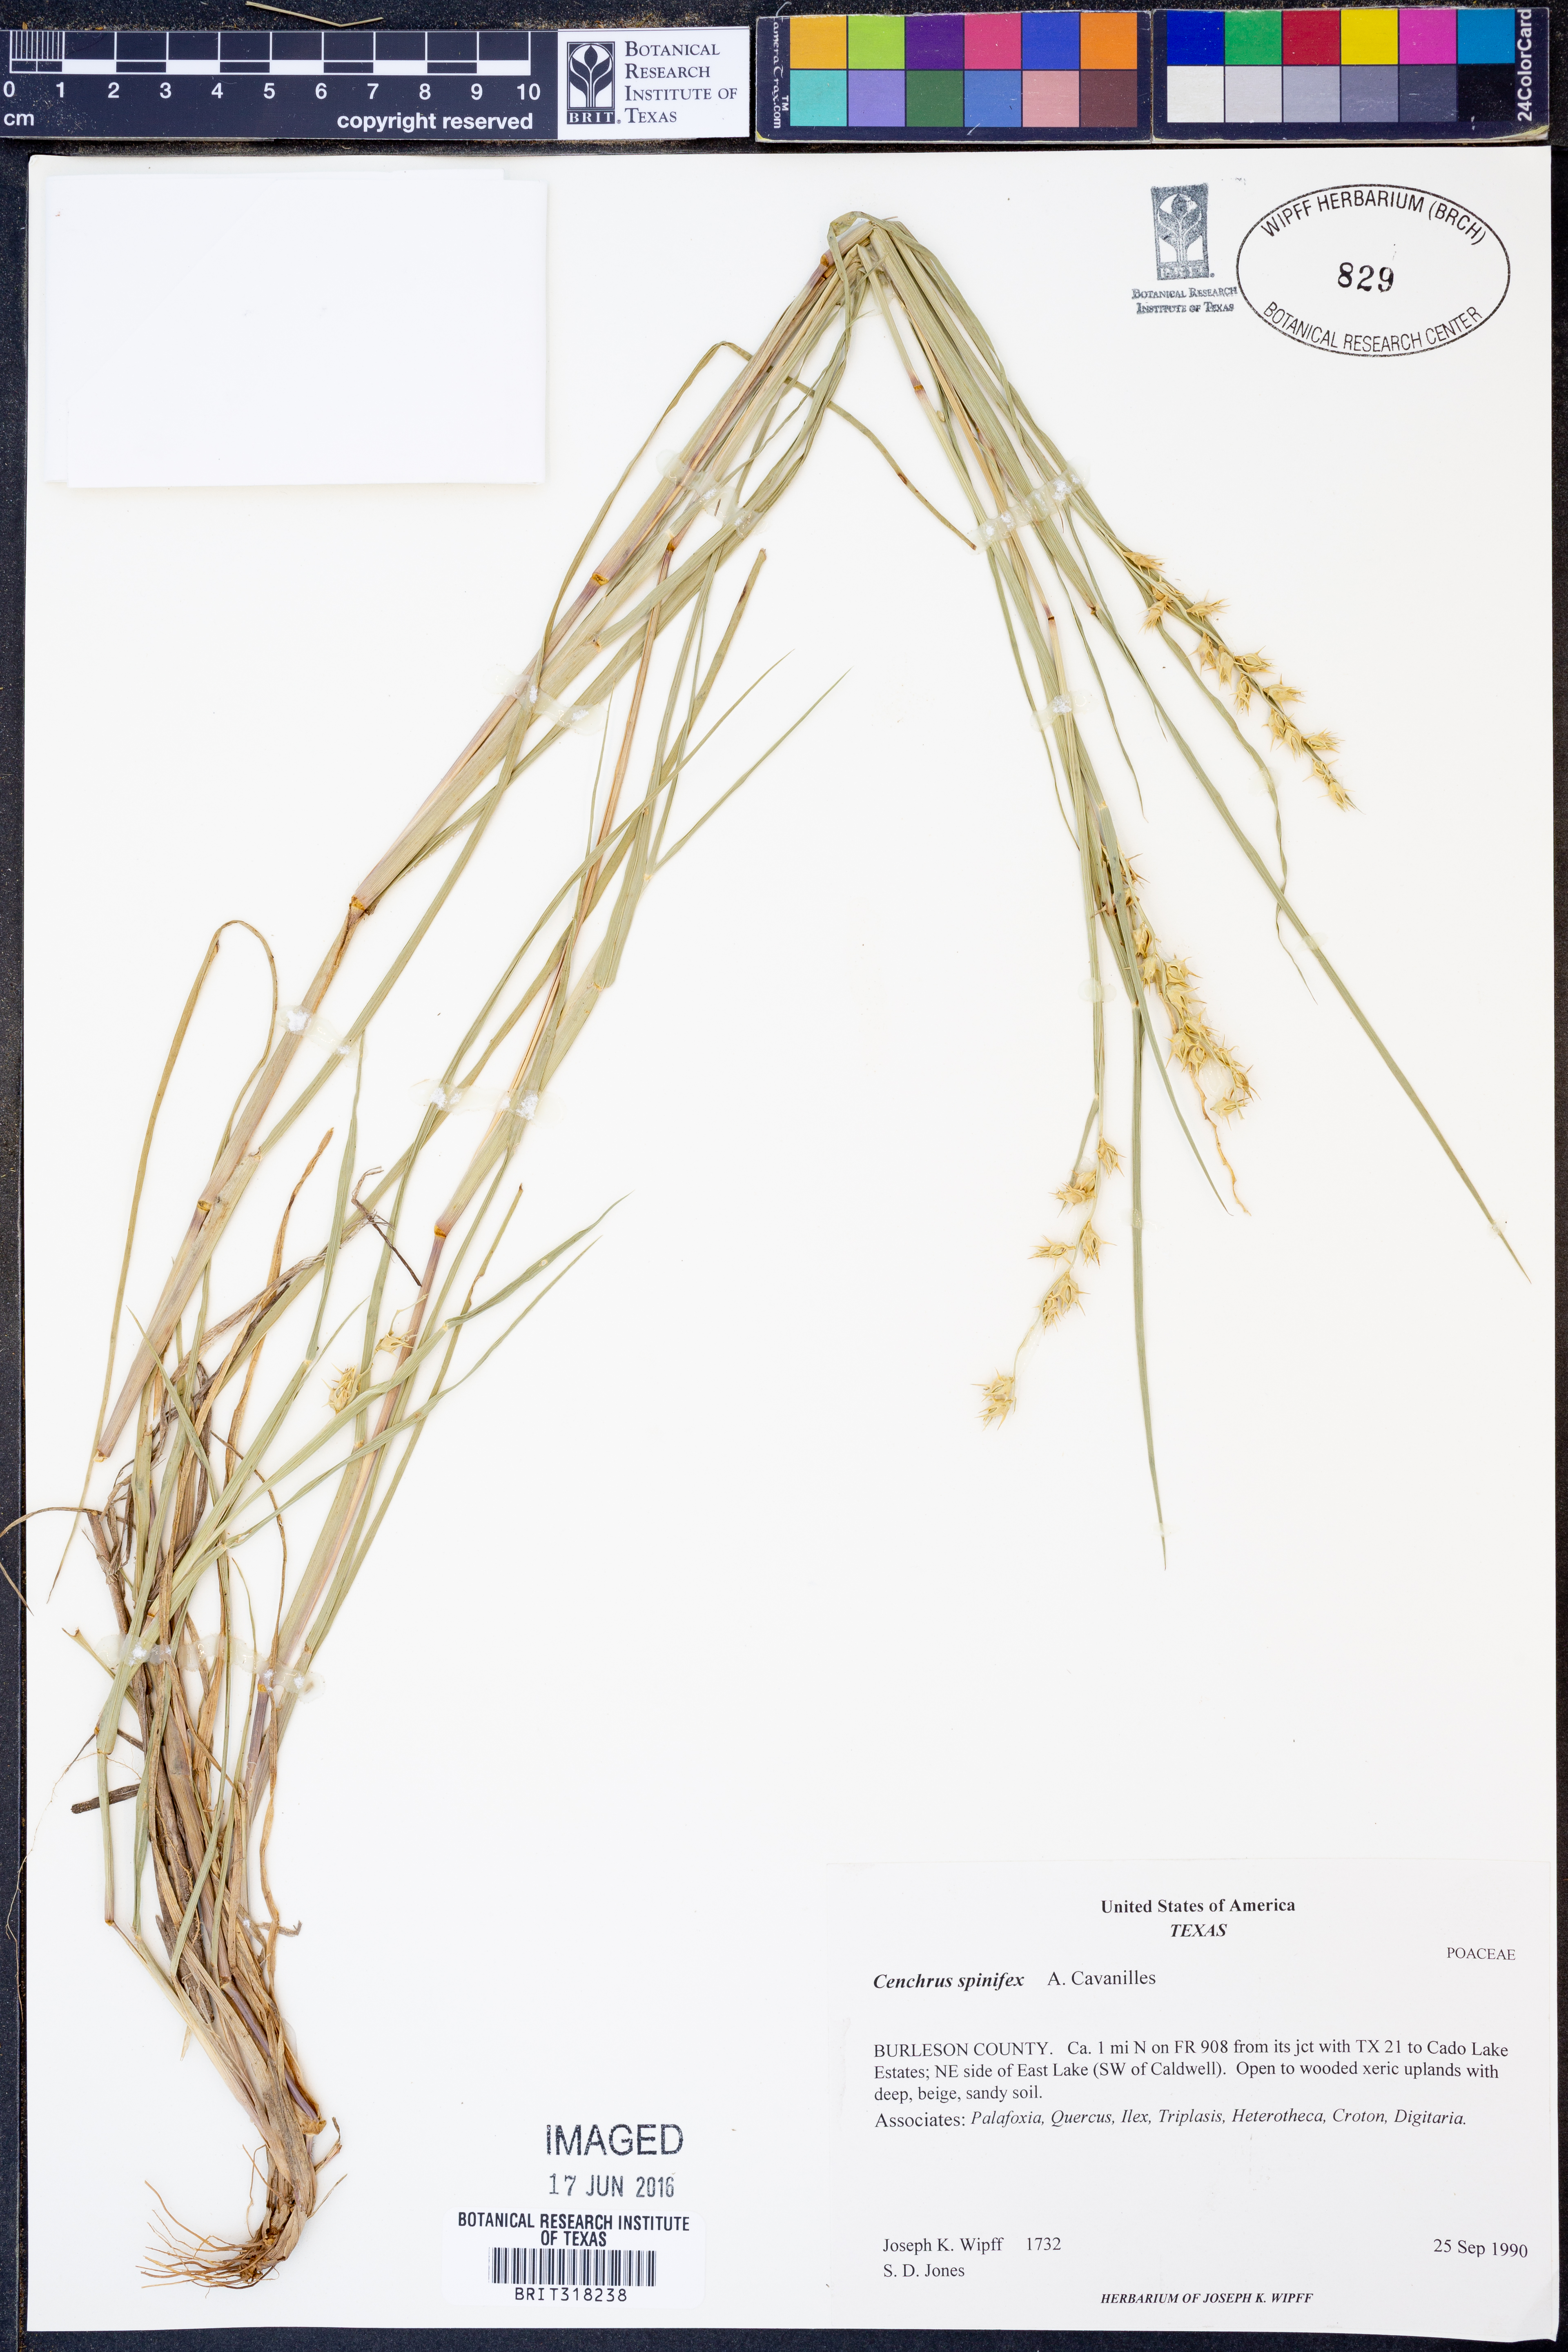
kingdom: Plantae
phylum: Tracheophyta
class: Liliopsida
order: Poales
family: Poaceae
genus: Cenchrus
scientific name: Cenchrus spinifex
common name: Coast sandbur
